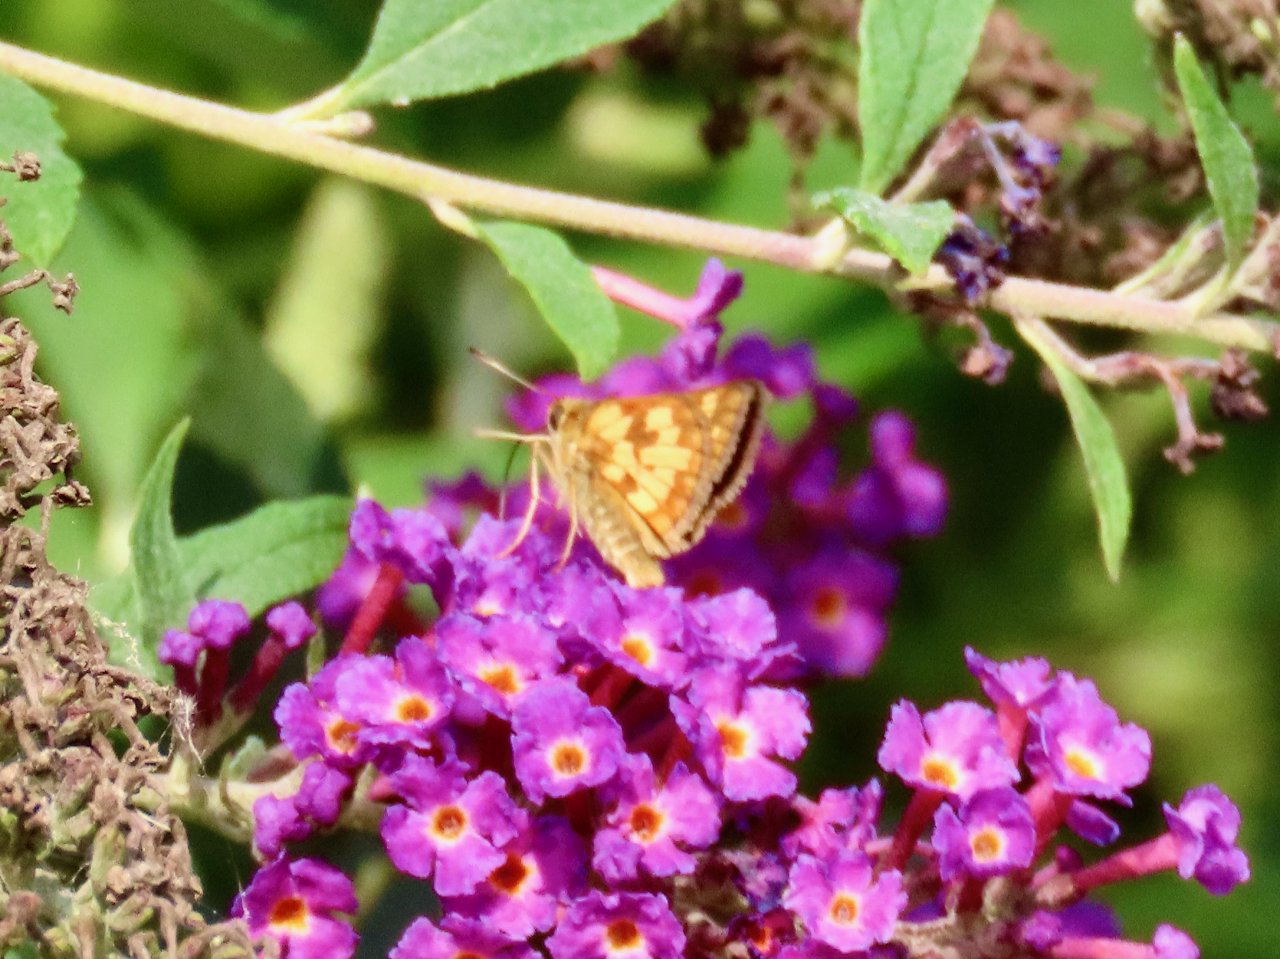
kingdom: Animalia
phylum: Arthropoda
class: Insecta
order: Lepidoptera
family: Hesperiidae
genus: Polites
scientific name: Polites coras
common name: Peck's Skipper
